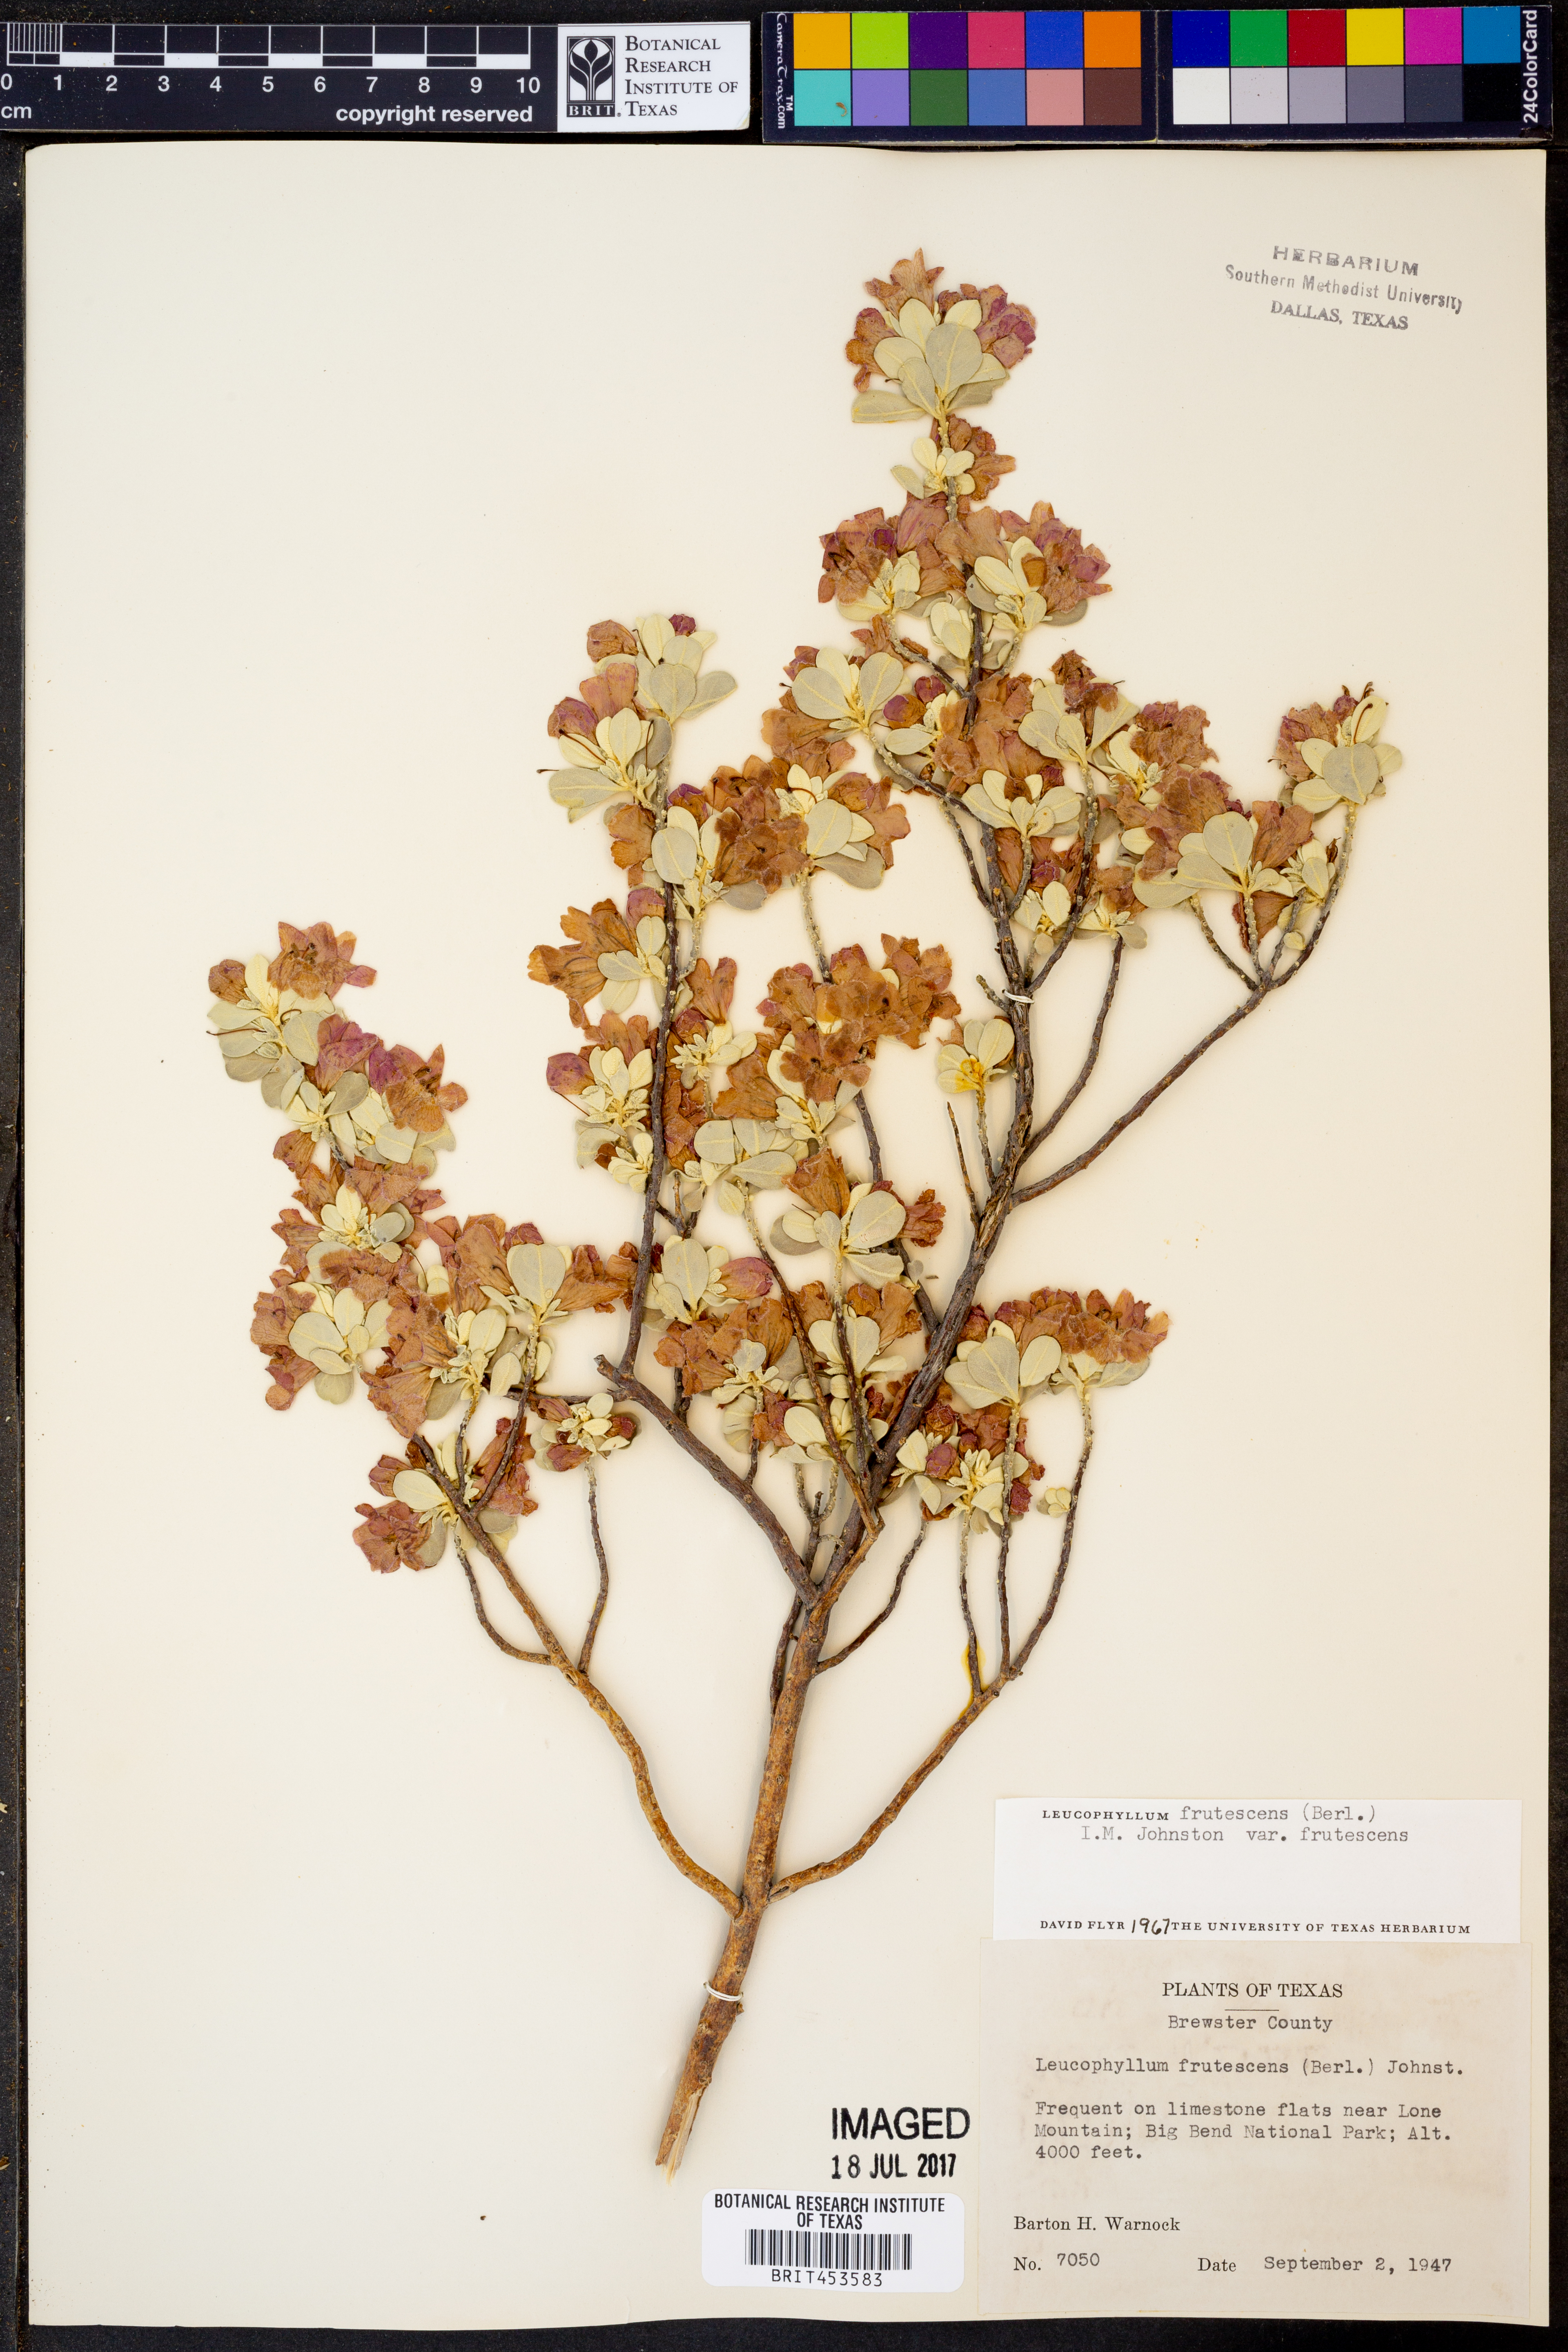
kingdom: Plantae
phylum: Tracheophyta
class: Magnoliopsida
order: Lamiales
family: Scrophulariaceae
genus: Leucophyllum
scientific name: Leucophyllum frutescens
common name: Texas silverleaf
